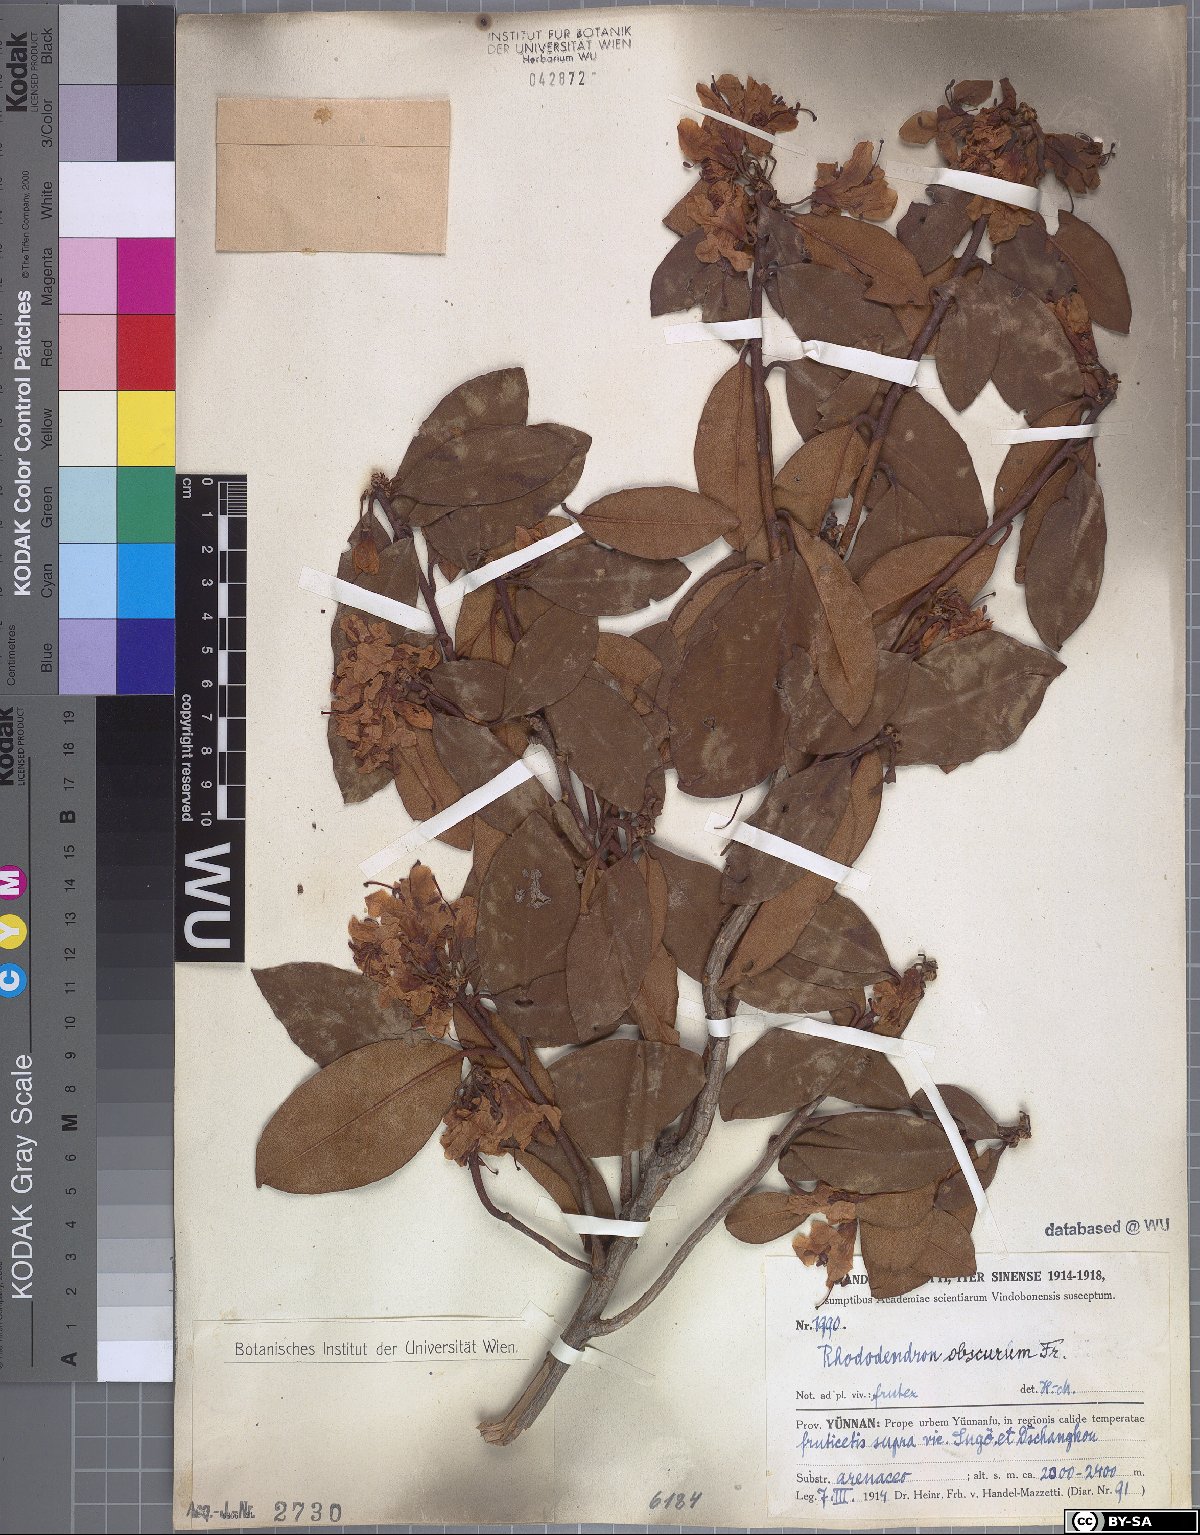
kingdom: Plantae
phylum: Tracheophyta
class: Magnoliopsida
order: Ericales
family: Ericaceae
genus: Rhododendron
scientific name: Rhododendron benomense
